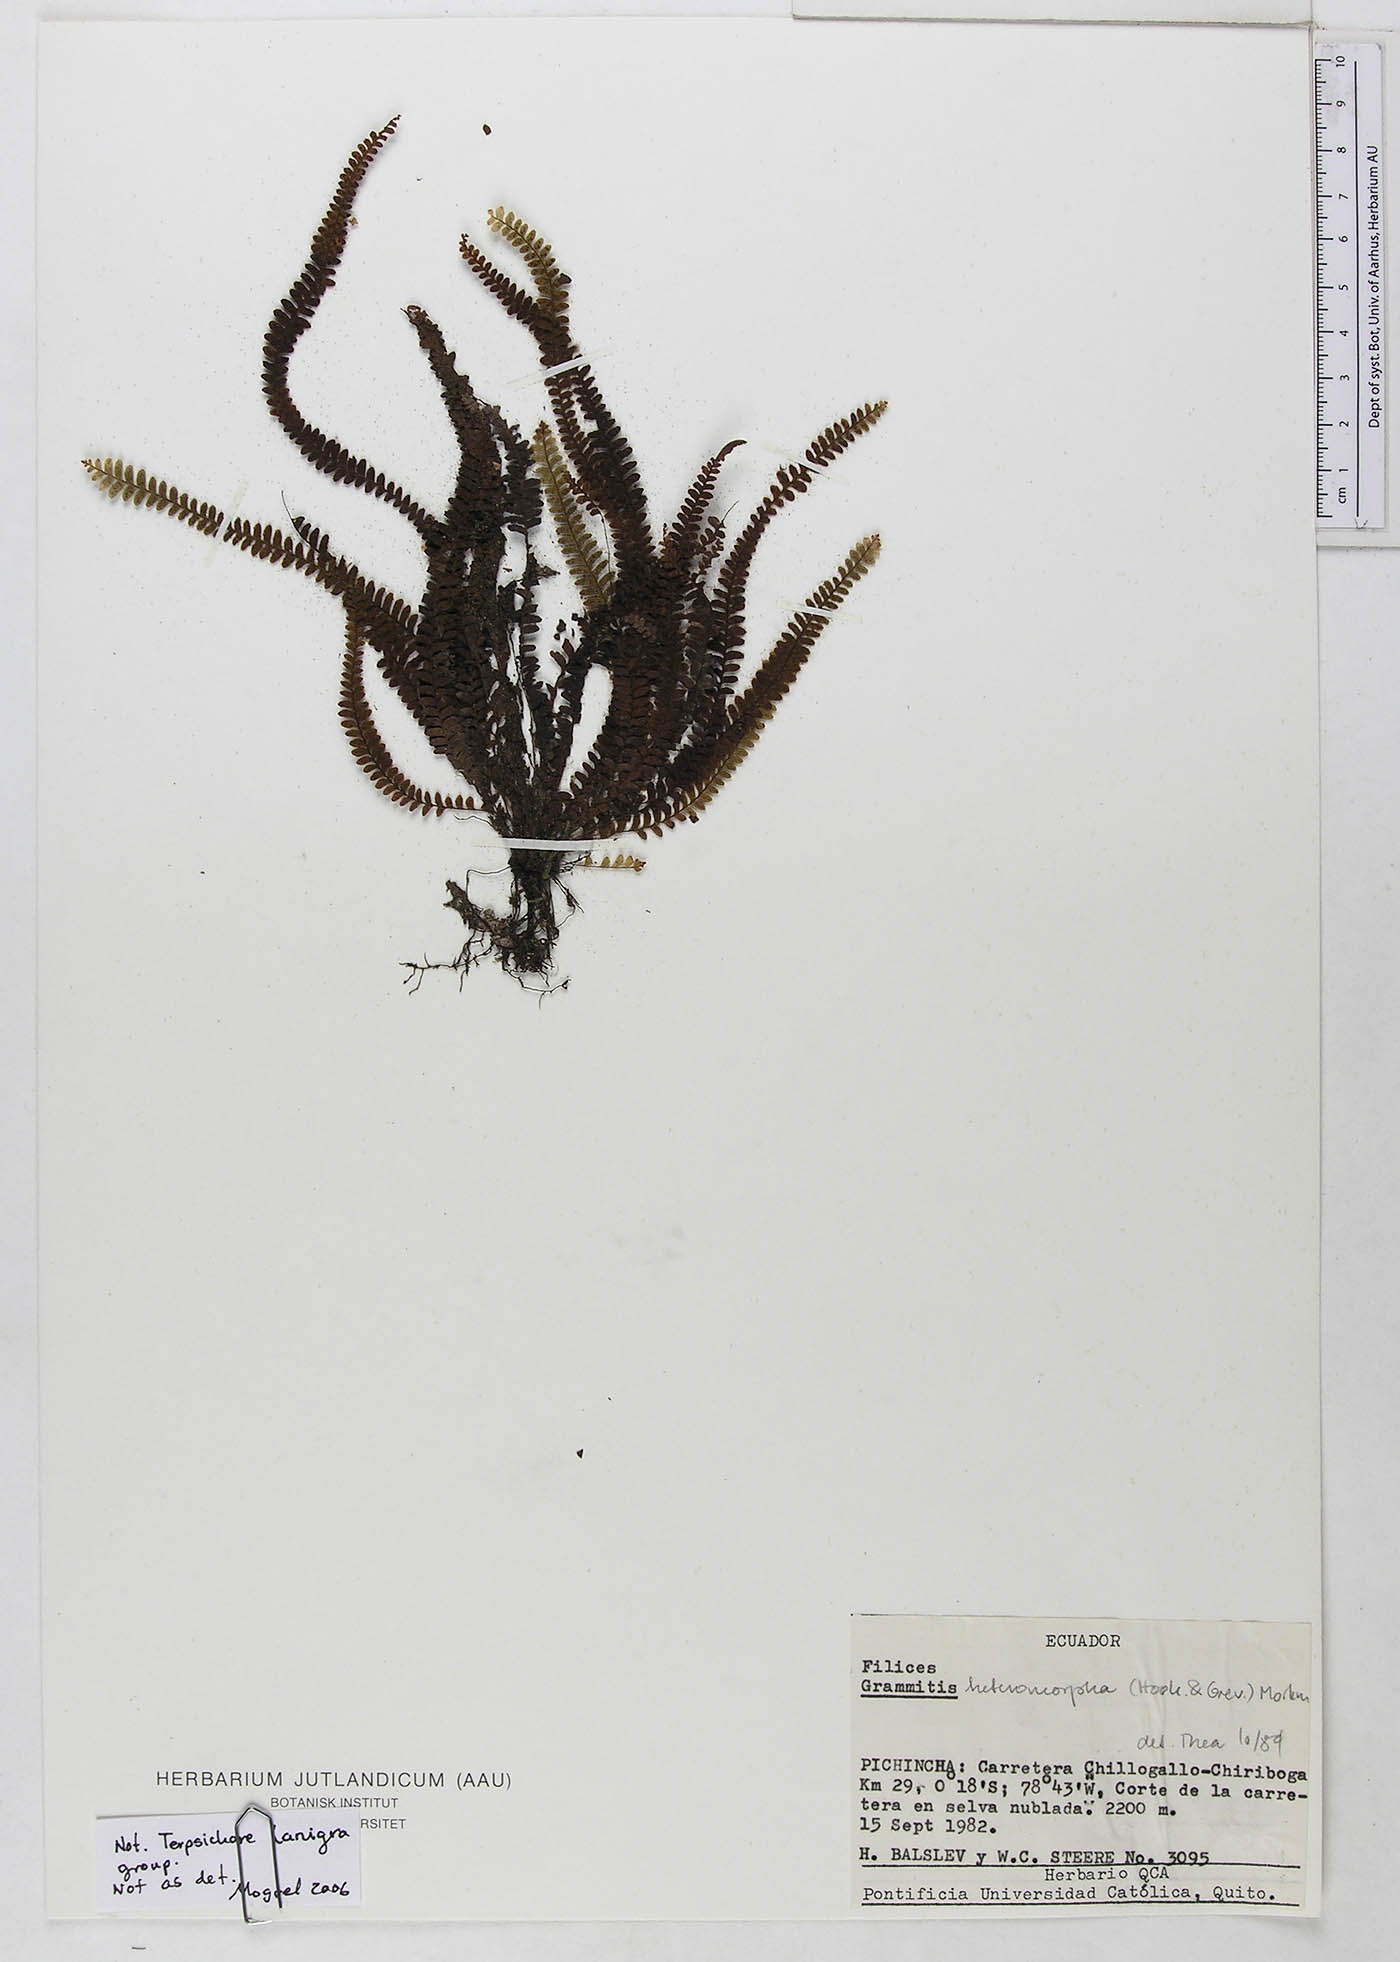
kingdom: Plantae
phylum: Tracheophyta
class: Polypodiopsida
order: Polypodiales
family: Polypodiaceae
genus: Grammitis
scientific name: Grammitis
